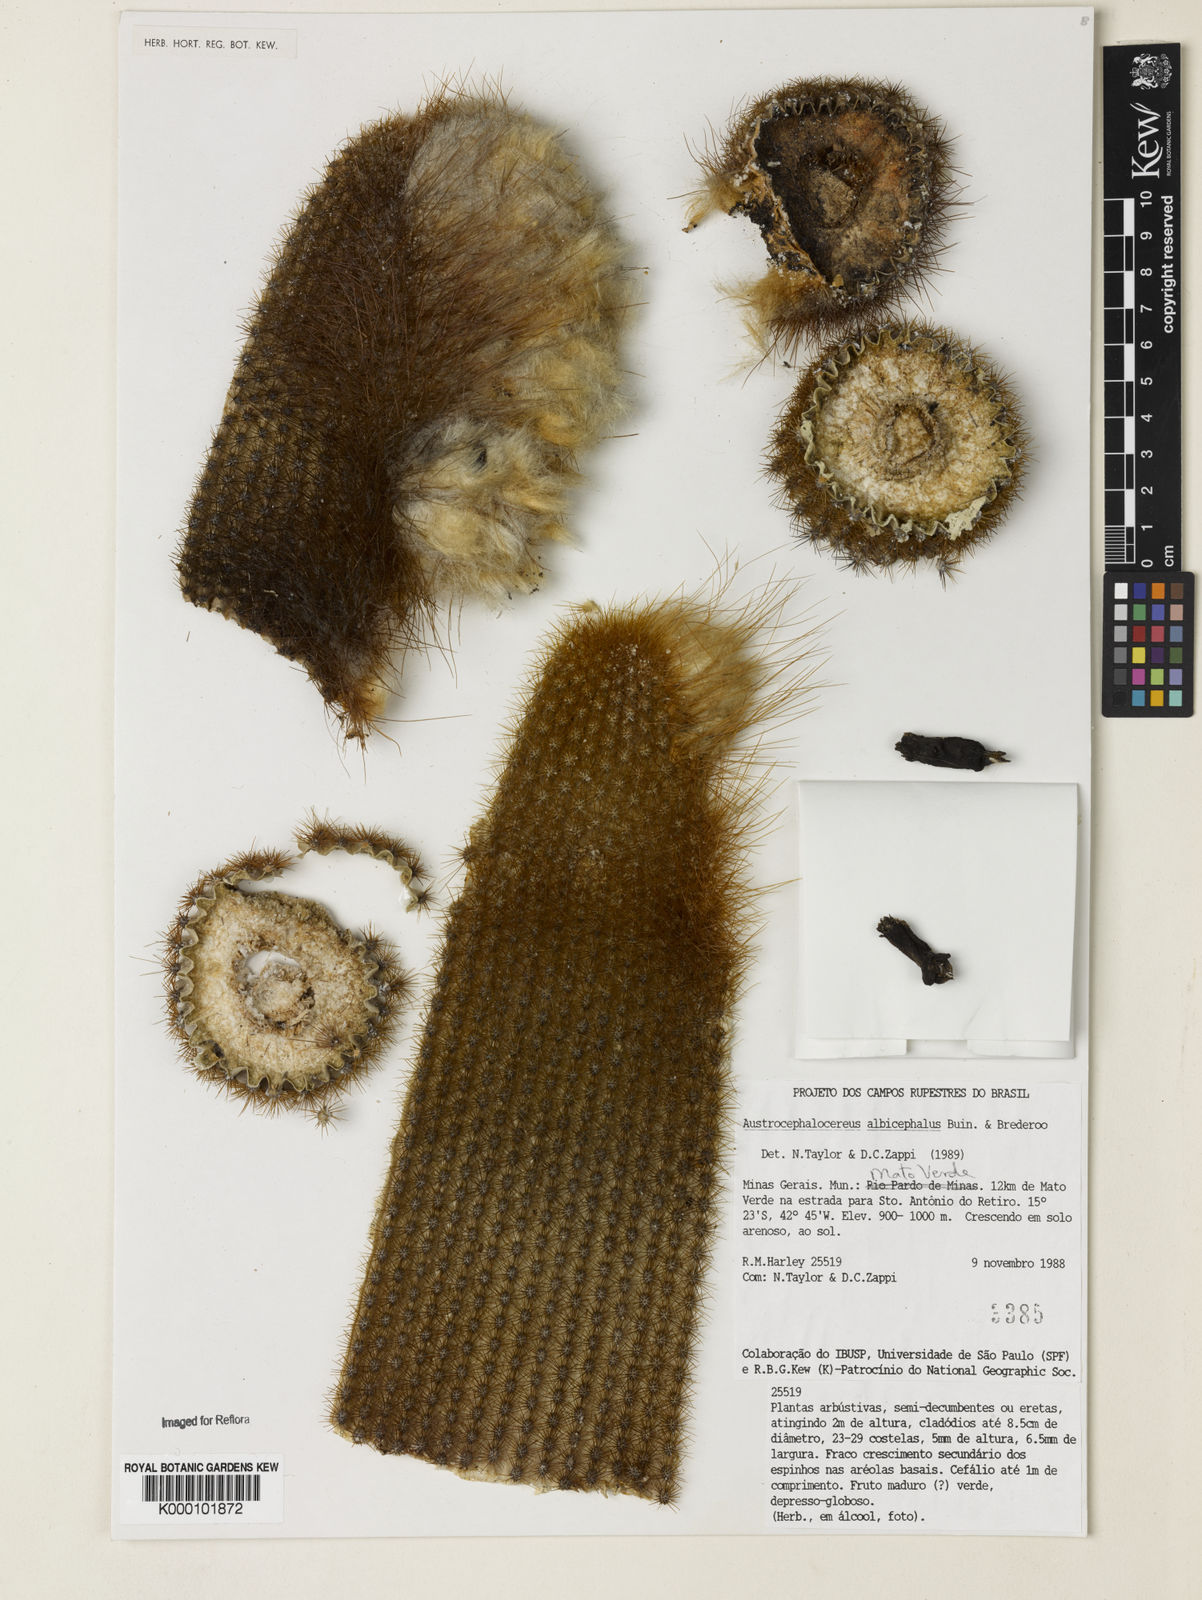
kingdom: Plantae
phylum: Tracheophyta
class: Magnoliopsida
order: Caryophyllales
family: Cactaceae
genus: Micranthocereus
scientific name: Micranthocereus albicephalus
